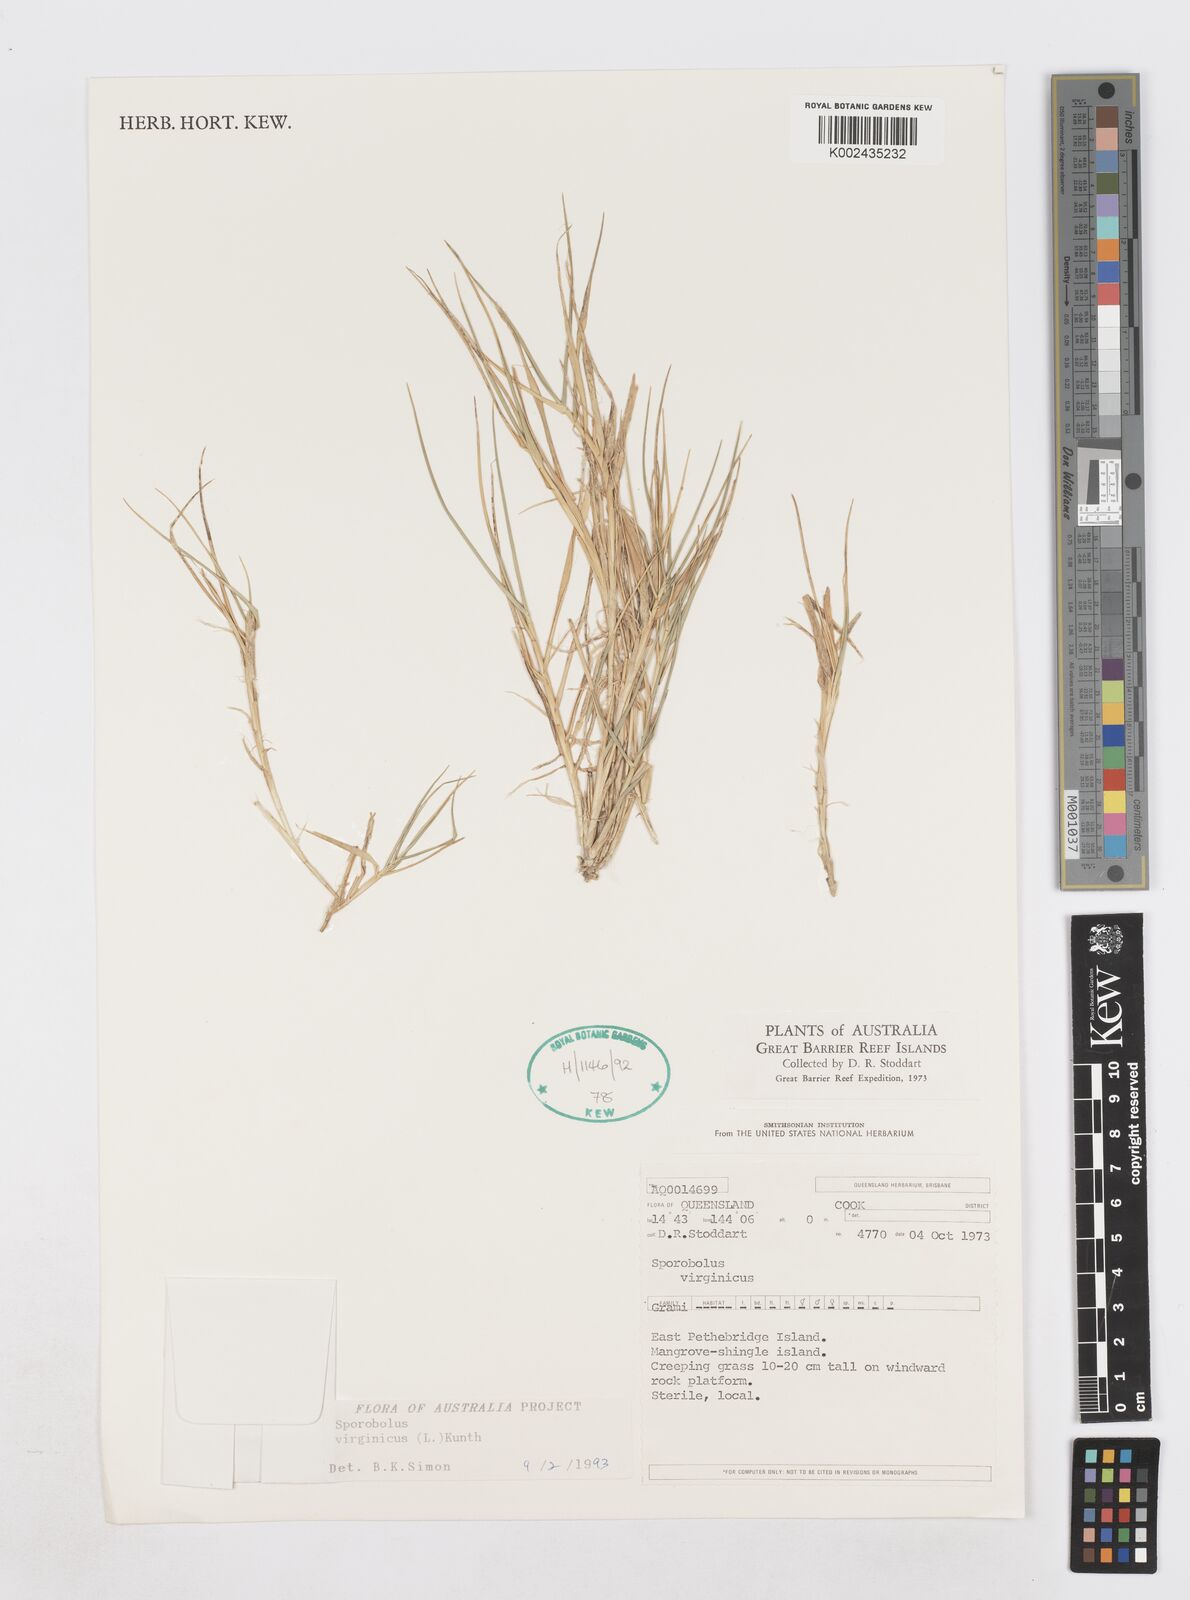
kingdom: Plantae
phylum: Tracheophyta
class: Liliopsida
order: Poales
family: Poaceae
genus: Sporobolus
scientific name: Sporobolus virginicus
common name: Beach dropseed
